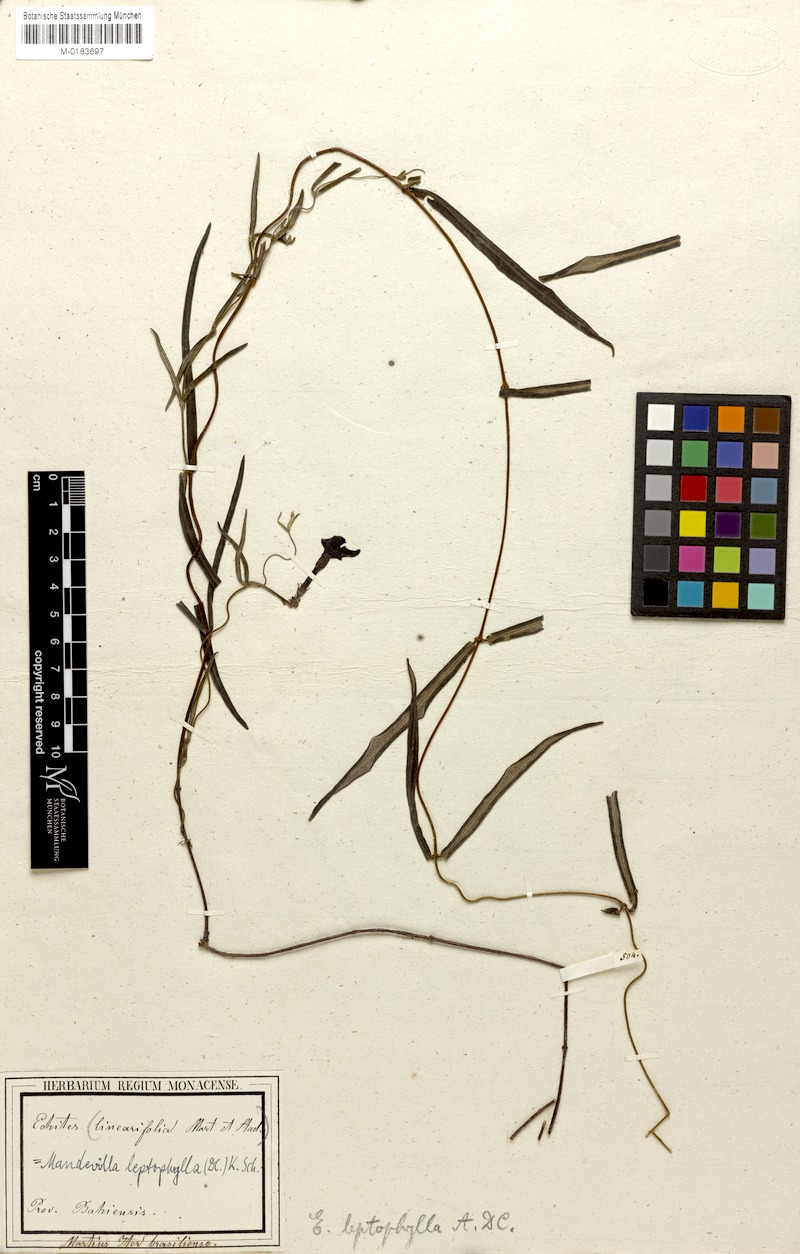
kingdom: Plantae
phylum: Tracheophyta
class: Magnoliopsida
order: Gentianales
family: Apocynaceae
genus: Mandevilla
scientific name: Mandevilla leptophylla
